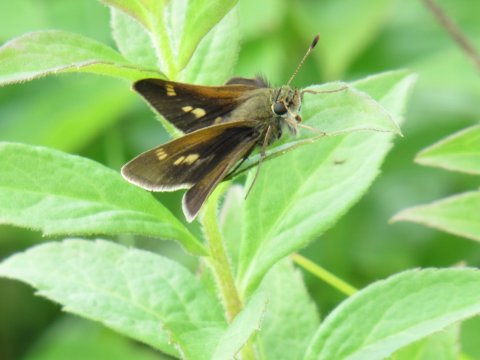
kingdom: Animalia
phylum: Arthropoda
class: Insecta
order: Lepidoptera
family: Hesperiidae
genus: Polites
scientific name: Polites themistocles
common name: Tawny-edged Skipper
